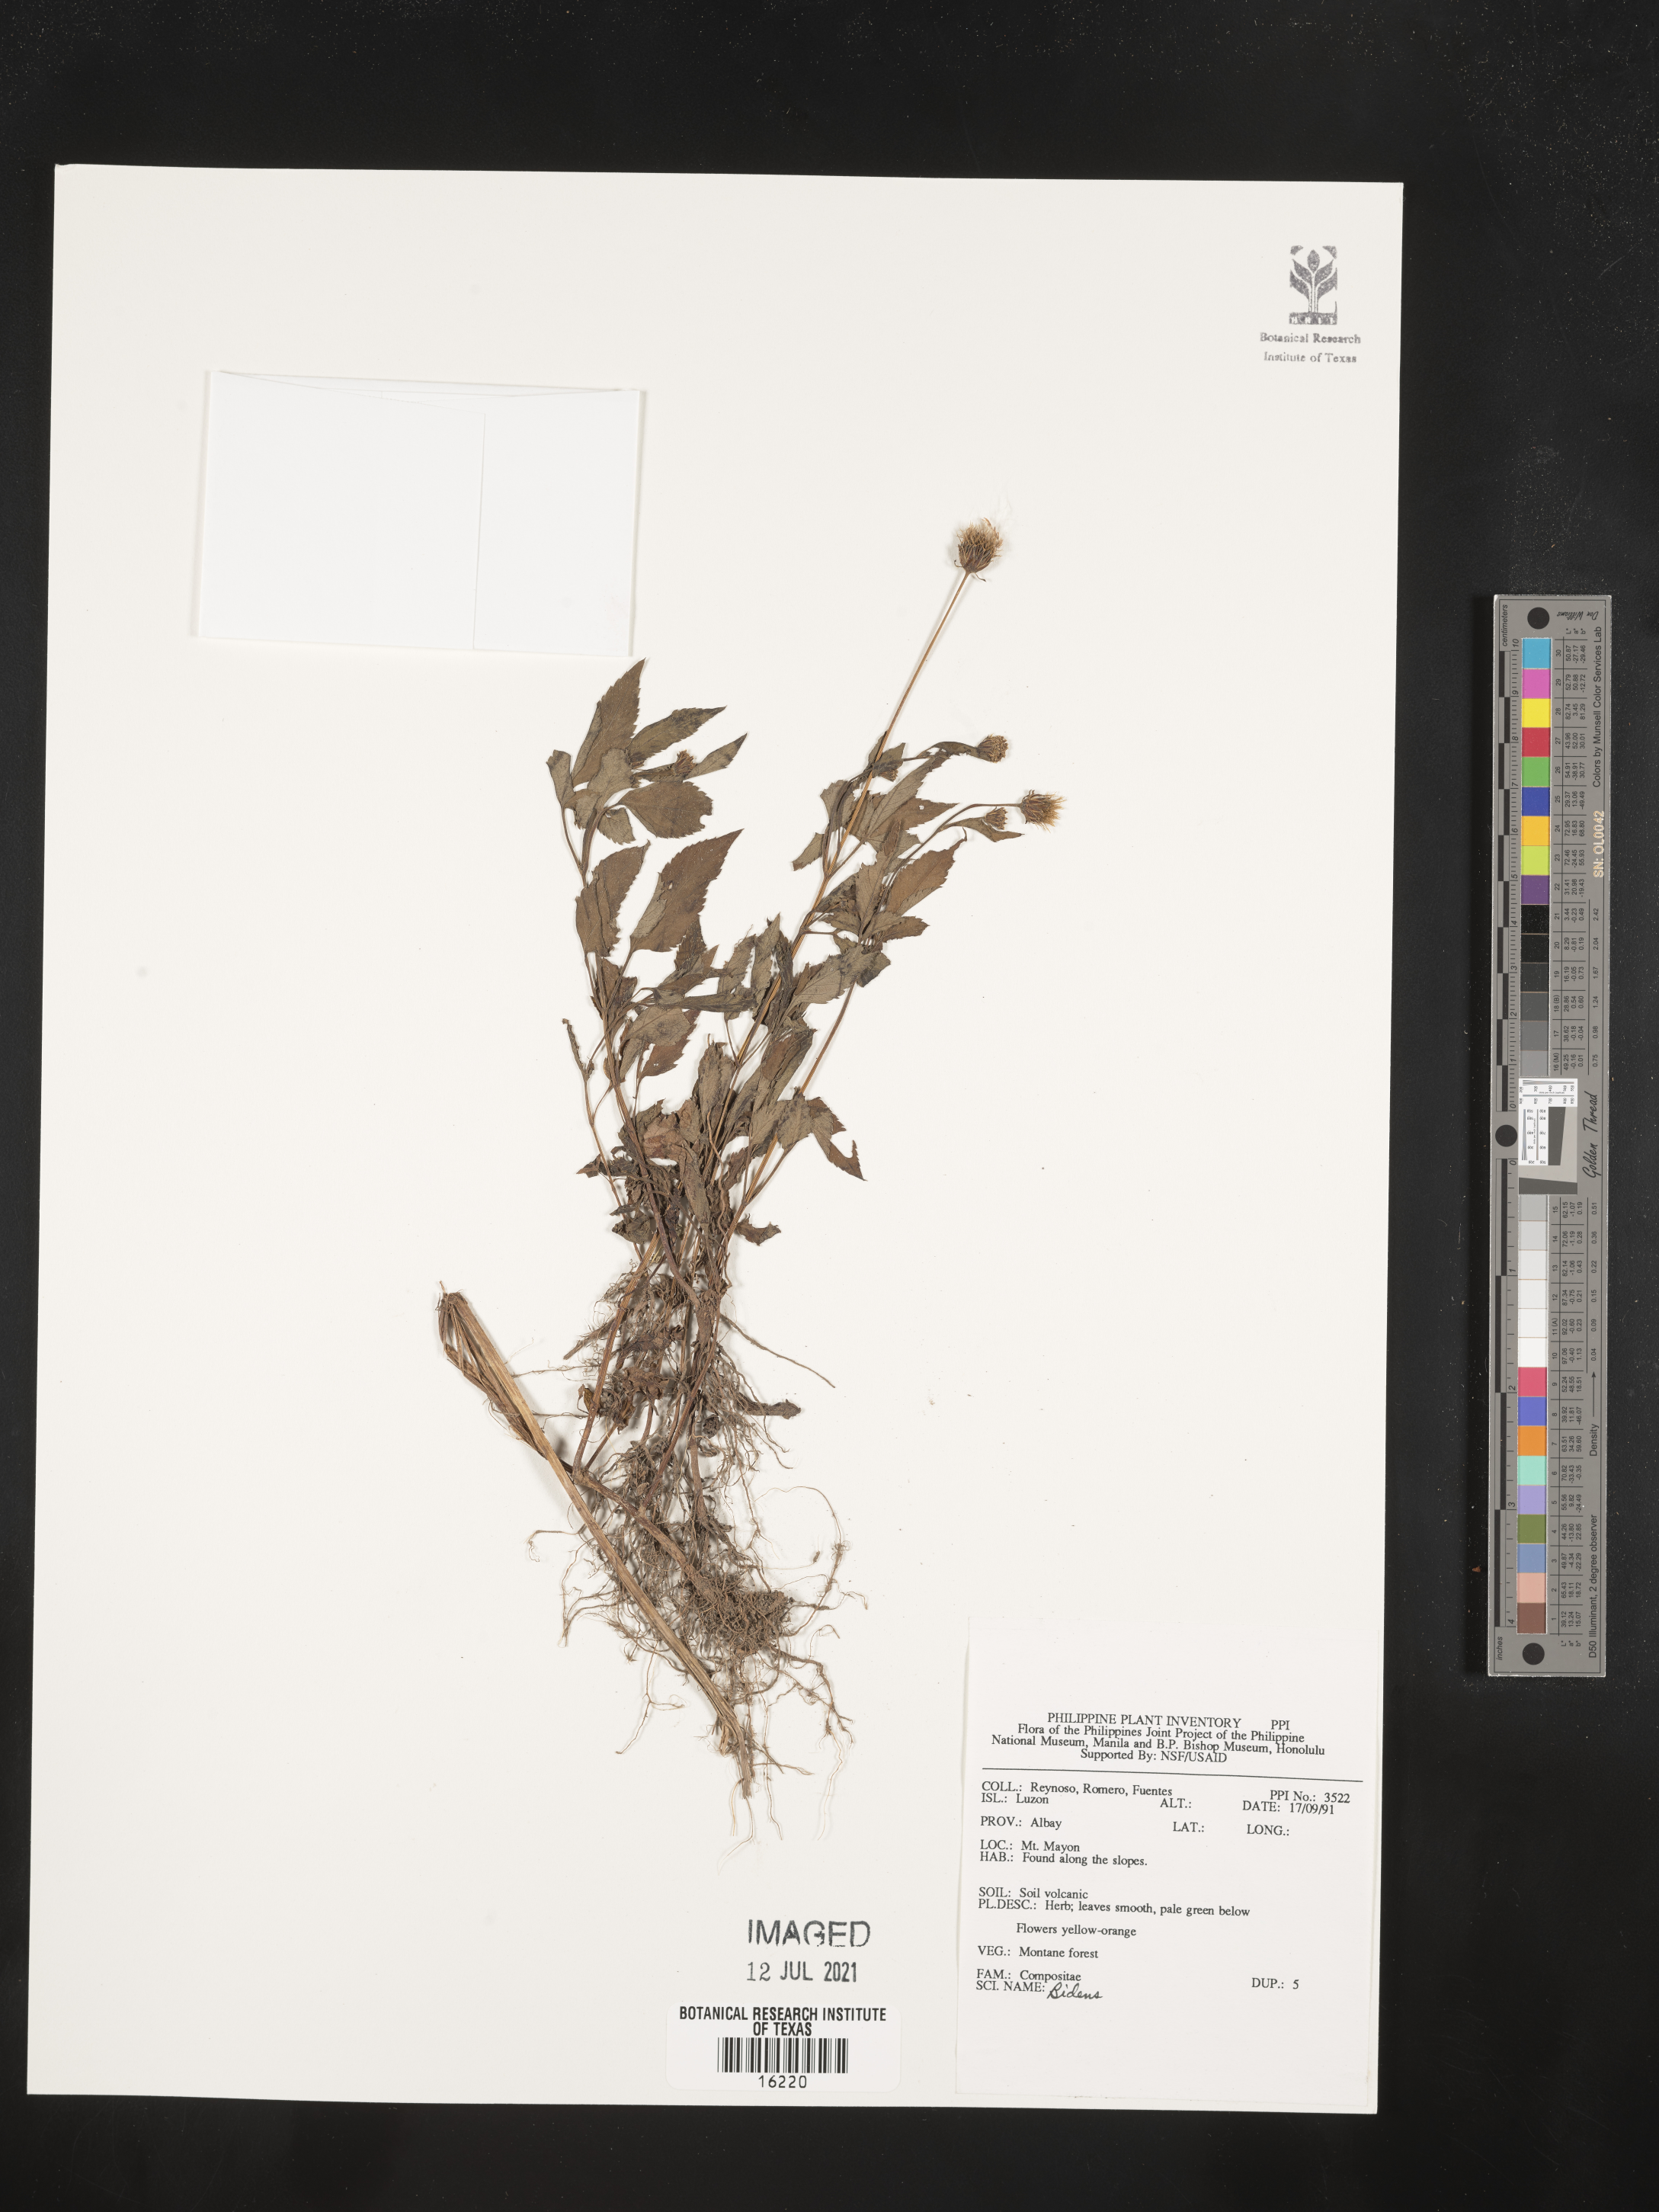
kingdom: Plantae
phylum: Tracheophyta
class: Magnoliopsida
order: Asterales
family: Asteraceae
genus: Bidens
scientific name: Bidens
